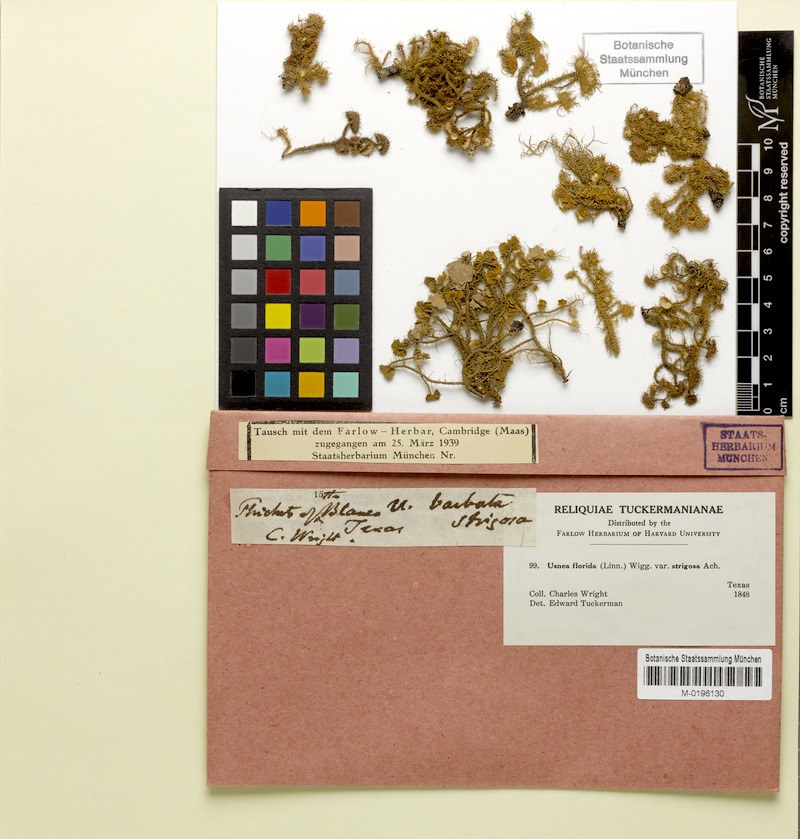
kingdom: Fungi
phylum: Ascomycota
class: Lecanoromycetes
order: Lecanorales
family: Parmeliaceae
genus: Usnea
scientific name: Usnea florida
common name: Witches' whiskers lichen
